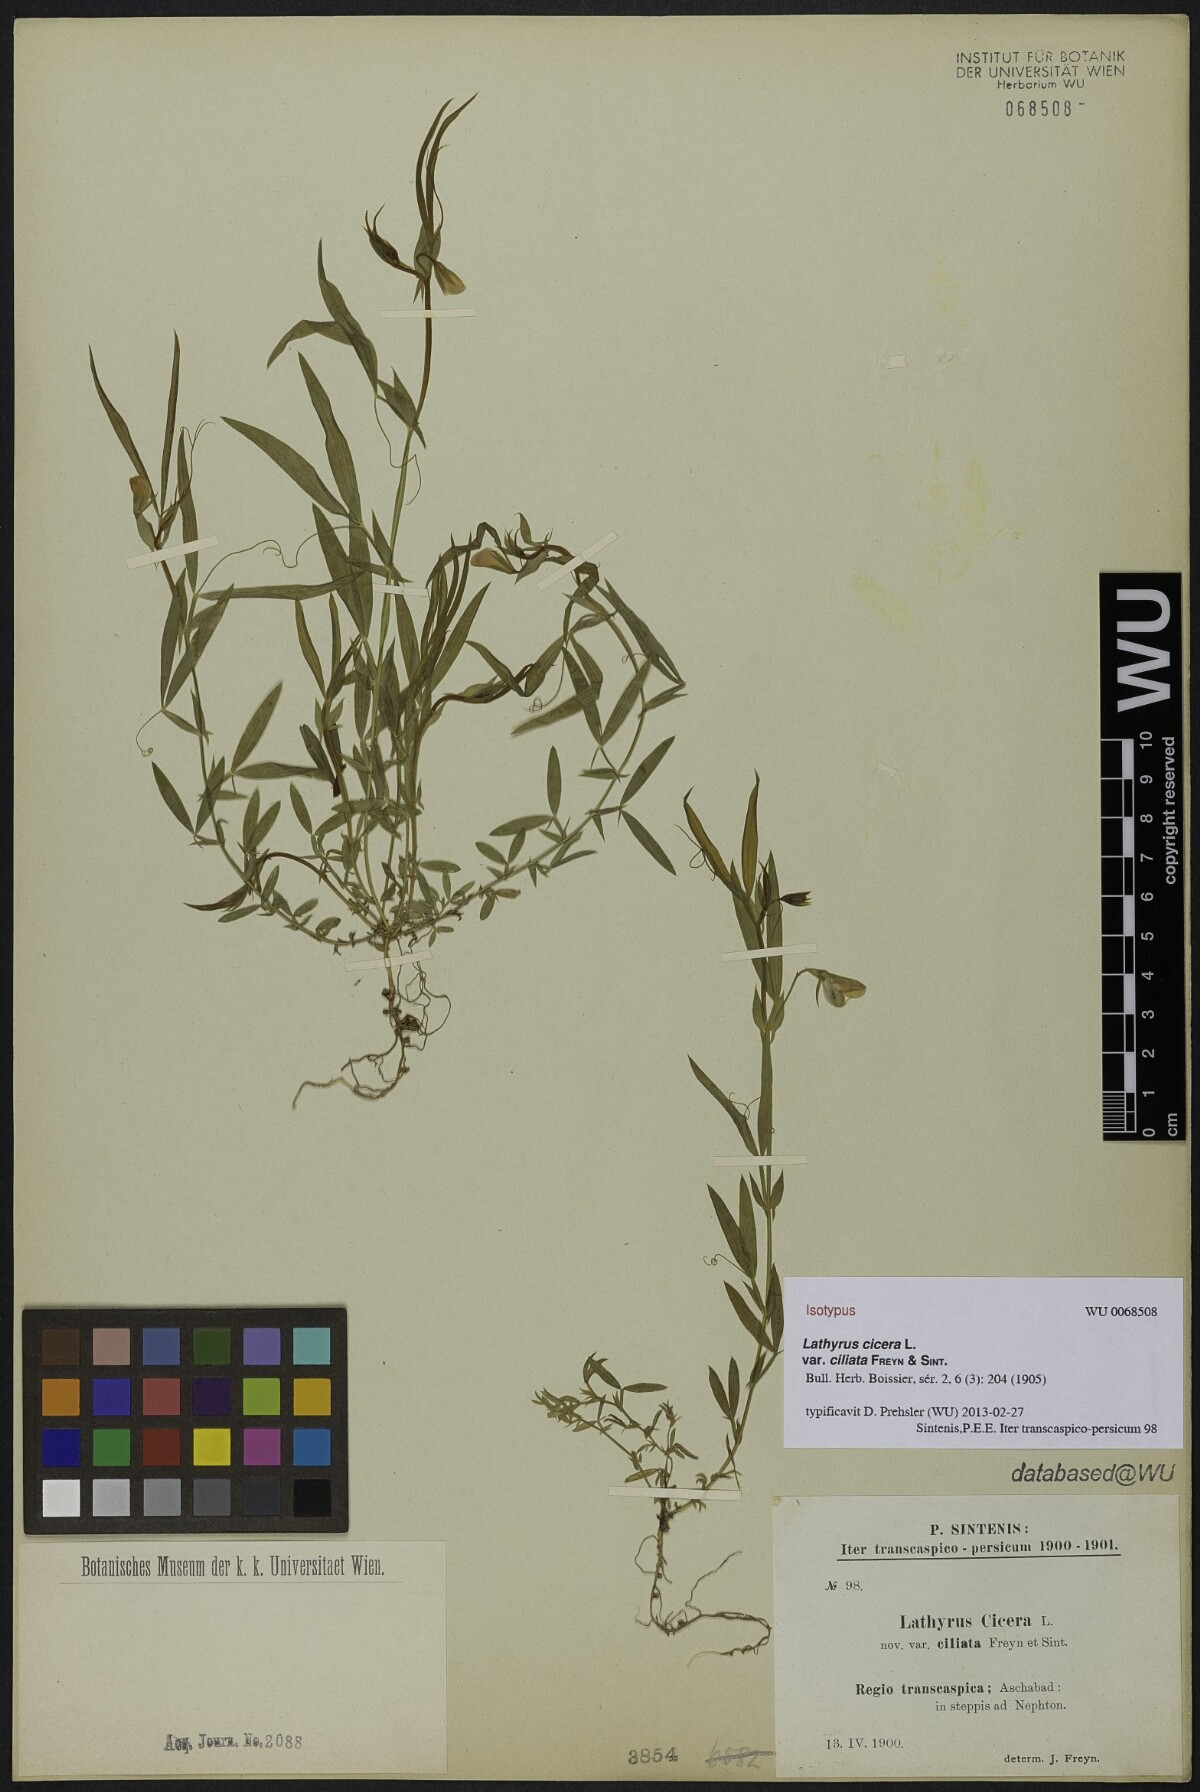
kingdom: Plantae
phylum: Tracheophyta
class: Magnoliopsida
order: Fabales
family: Fabaceae
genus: Lathyrus
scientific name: Lathyrus cicera
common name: Red vetchling
